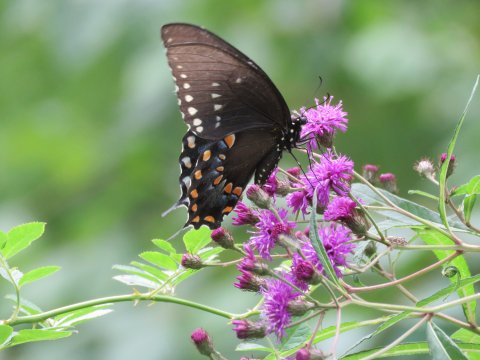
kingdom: Animalia
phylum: Arthropoda
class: Insecta
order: Lepidoptera
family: Papilionidae
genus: Pterourus
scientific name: Pterourus troilus
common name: Spicebush Swallowtail
